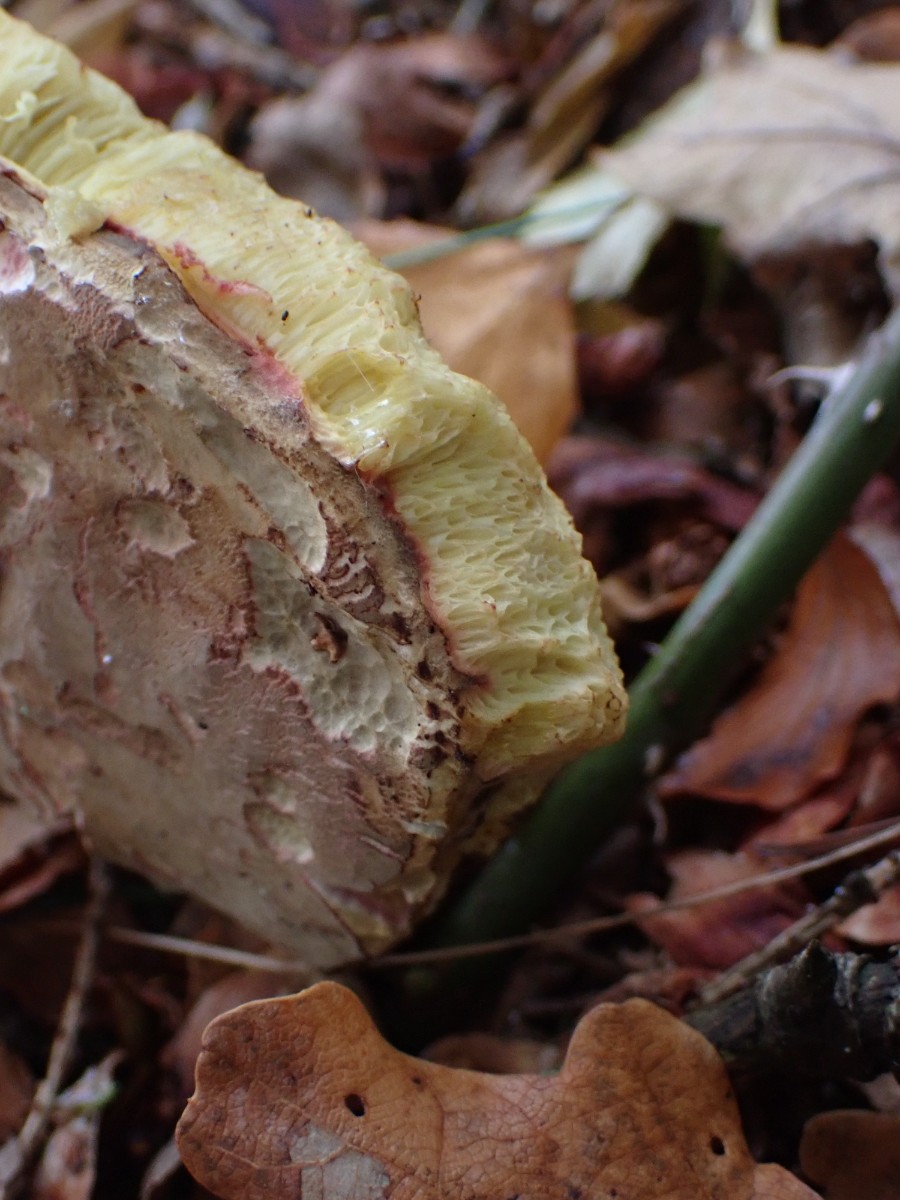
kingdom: Fungi
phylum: Basidiomycota
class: Agaricomycetes
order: Boletales
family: Boletaceae
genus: Xerocomellus
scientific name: Xerocomellus
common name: dværgrørhat
